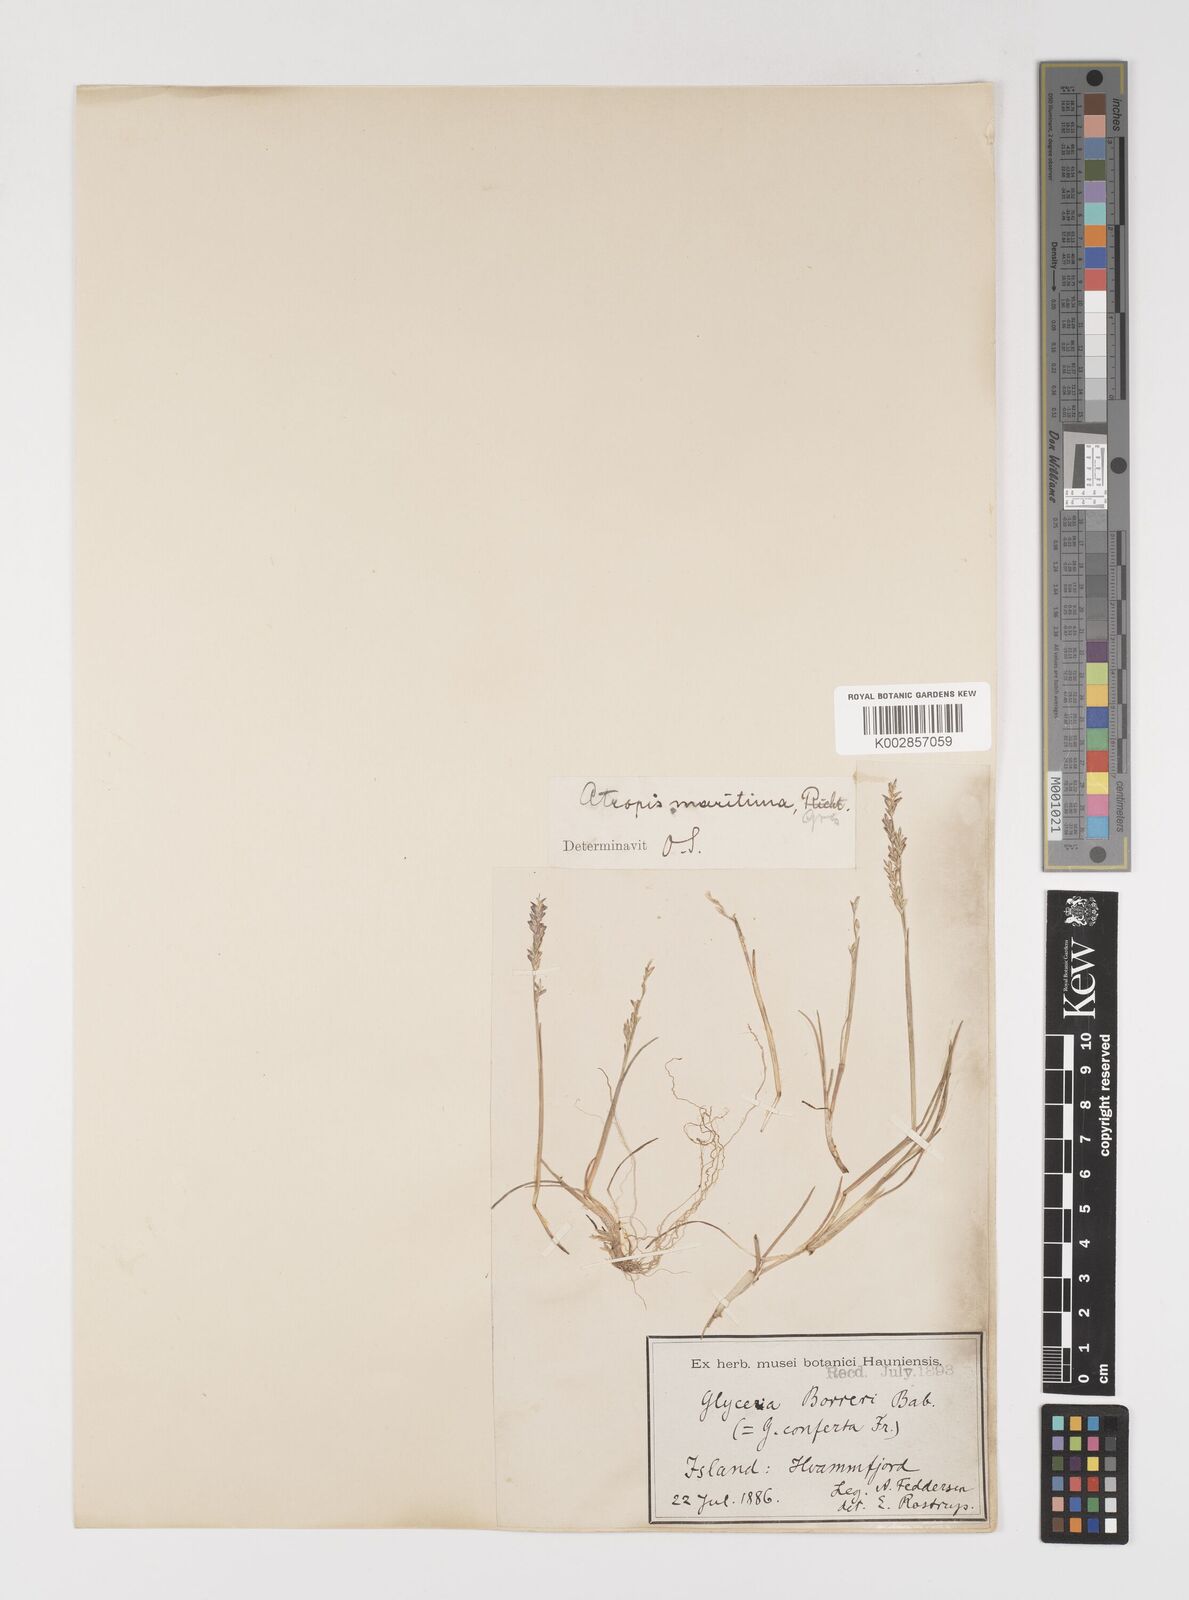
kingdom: Plantae
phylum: Tracheophyta
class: Liliopsida
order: Poales
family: Poaceae
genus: Puccinellia
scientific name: Puccinellia maritima
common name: Common saltmarsh grass
